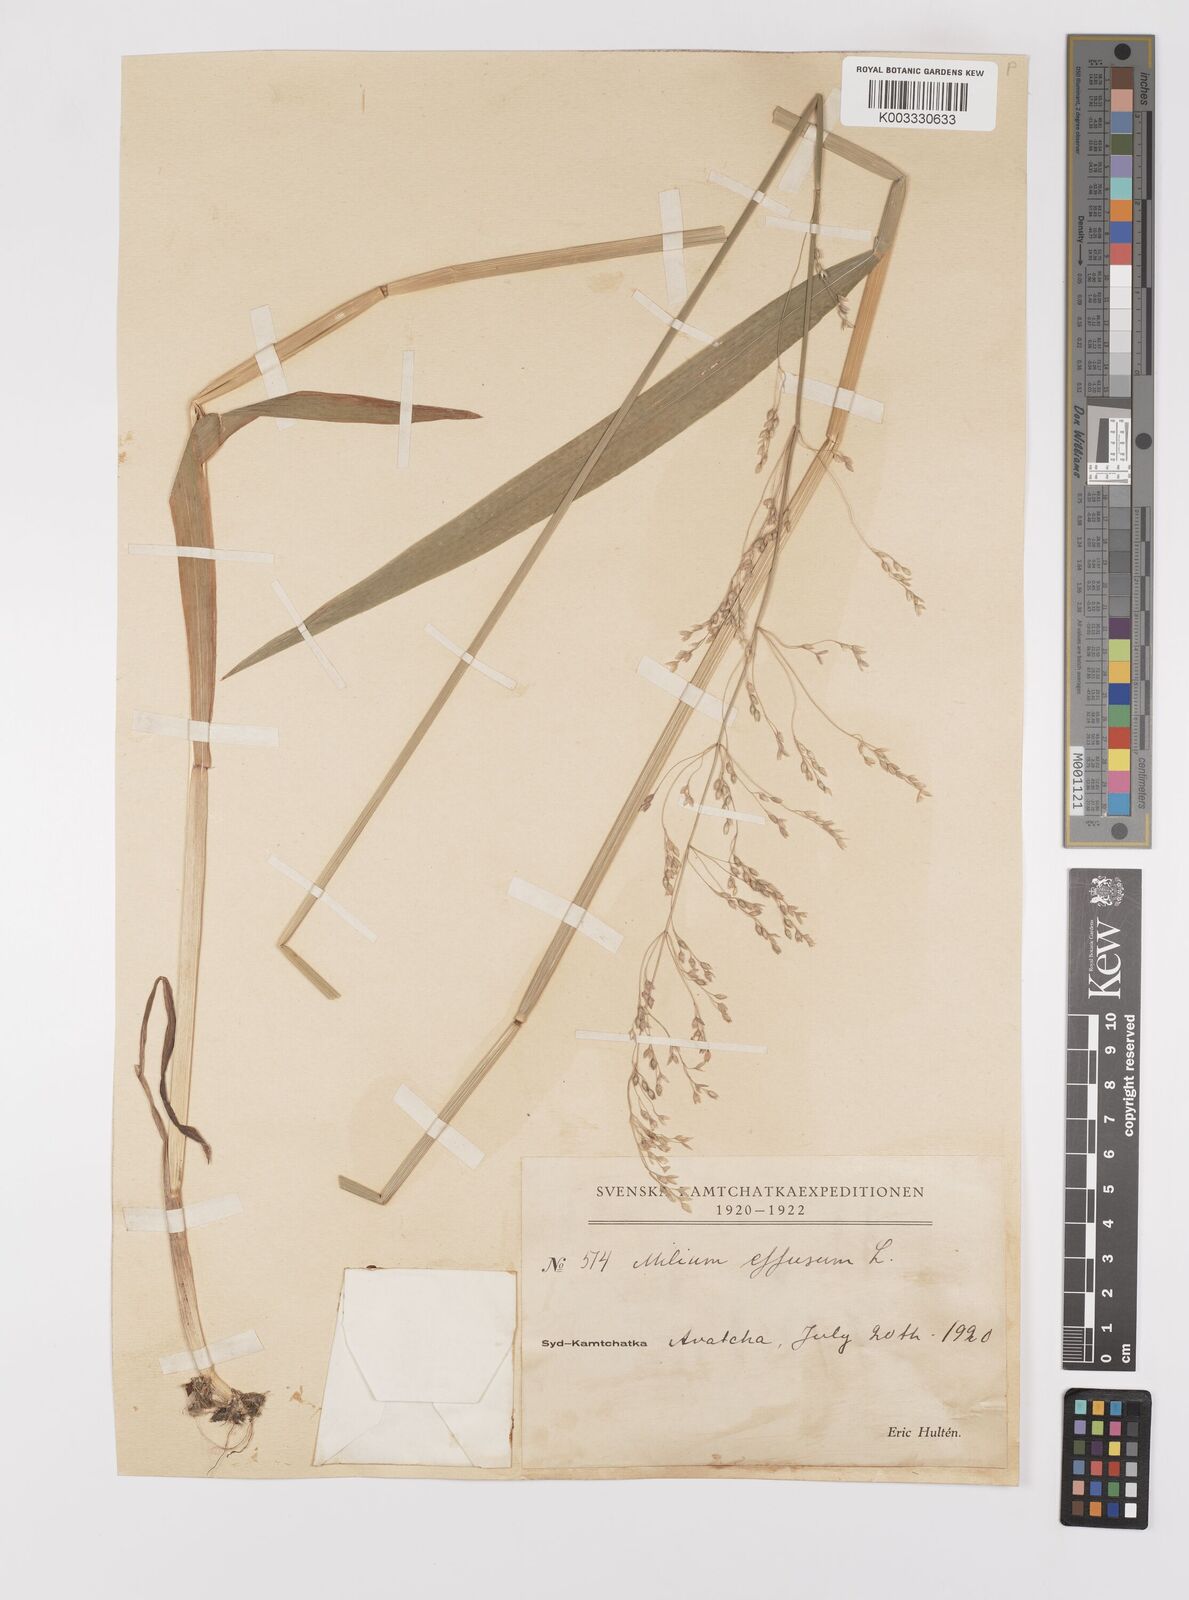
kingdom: Plantae
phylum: Tracheophyta
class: Liliopsida
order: Poales
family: Poaceae
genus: Milium
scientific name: Milium effusum
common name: Wood millet
